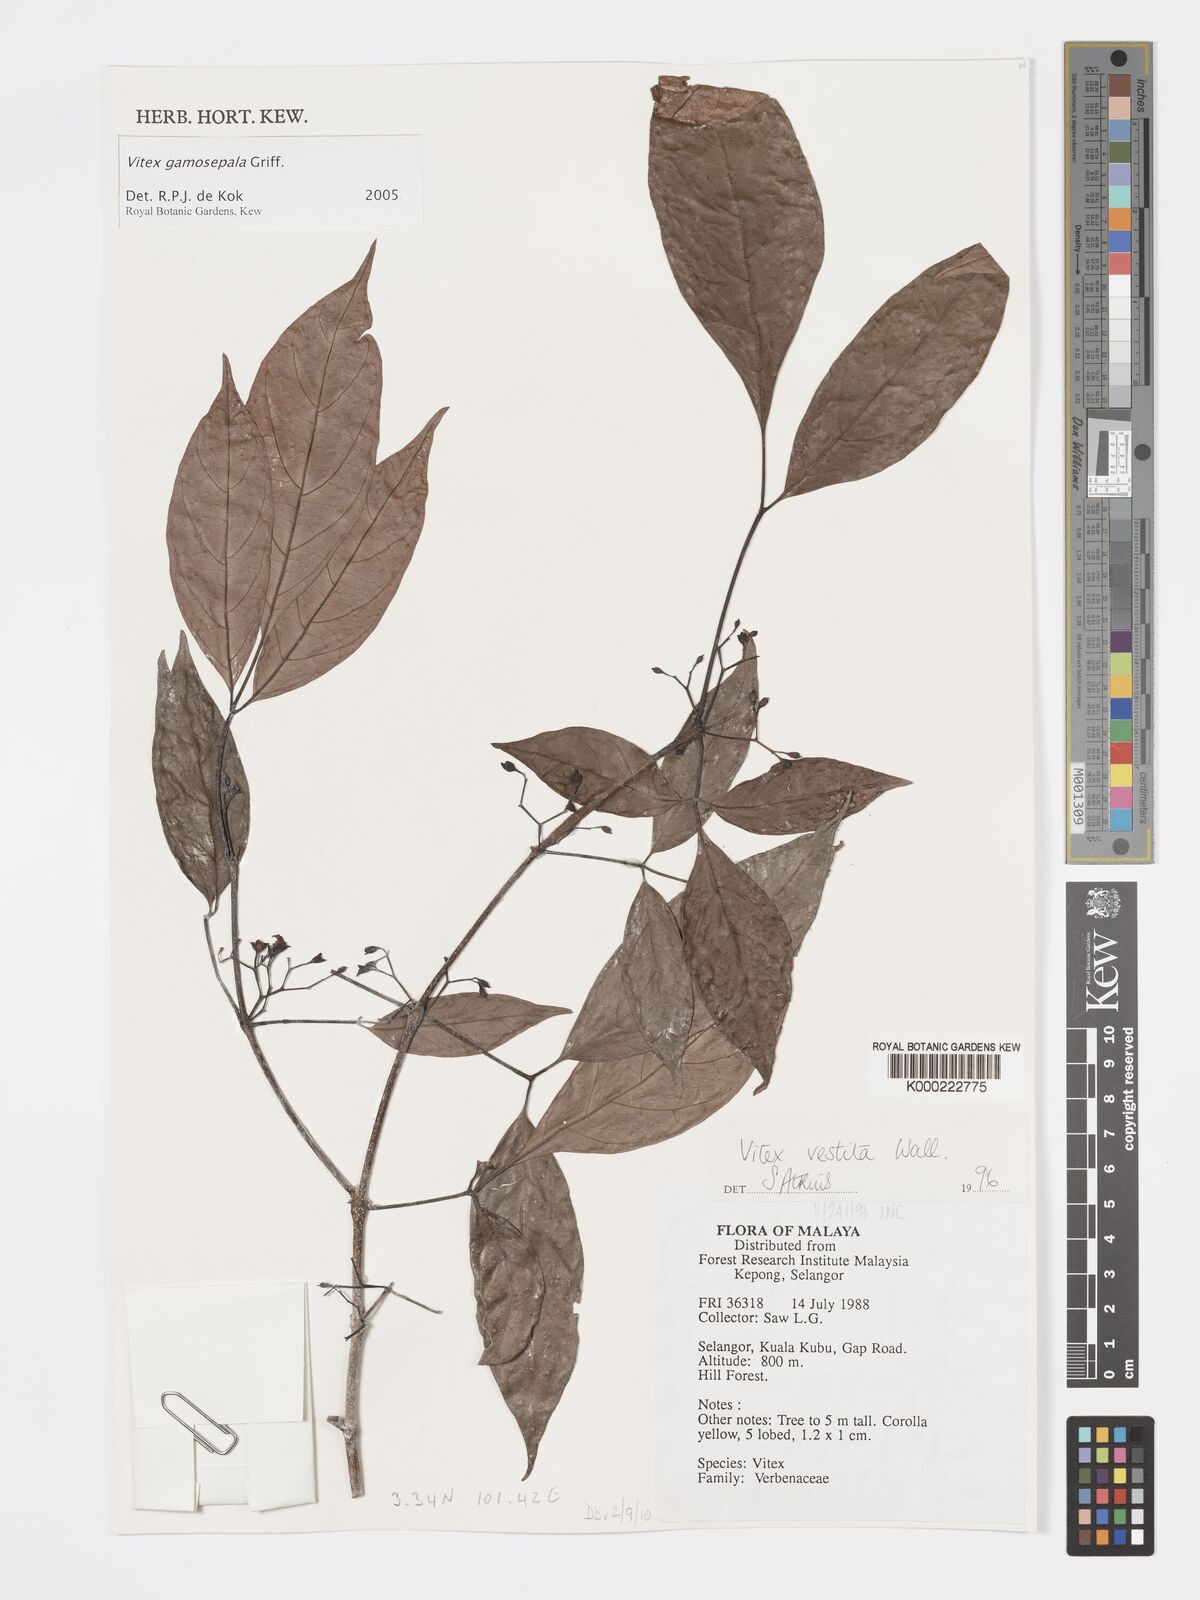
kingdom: Plantae
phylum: Tracheophyta
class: Magnoliopsida
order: Lamiales
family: Lamiaceae
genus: Vitex
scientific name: Vitex gamosepala
